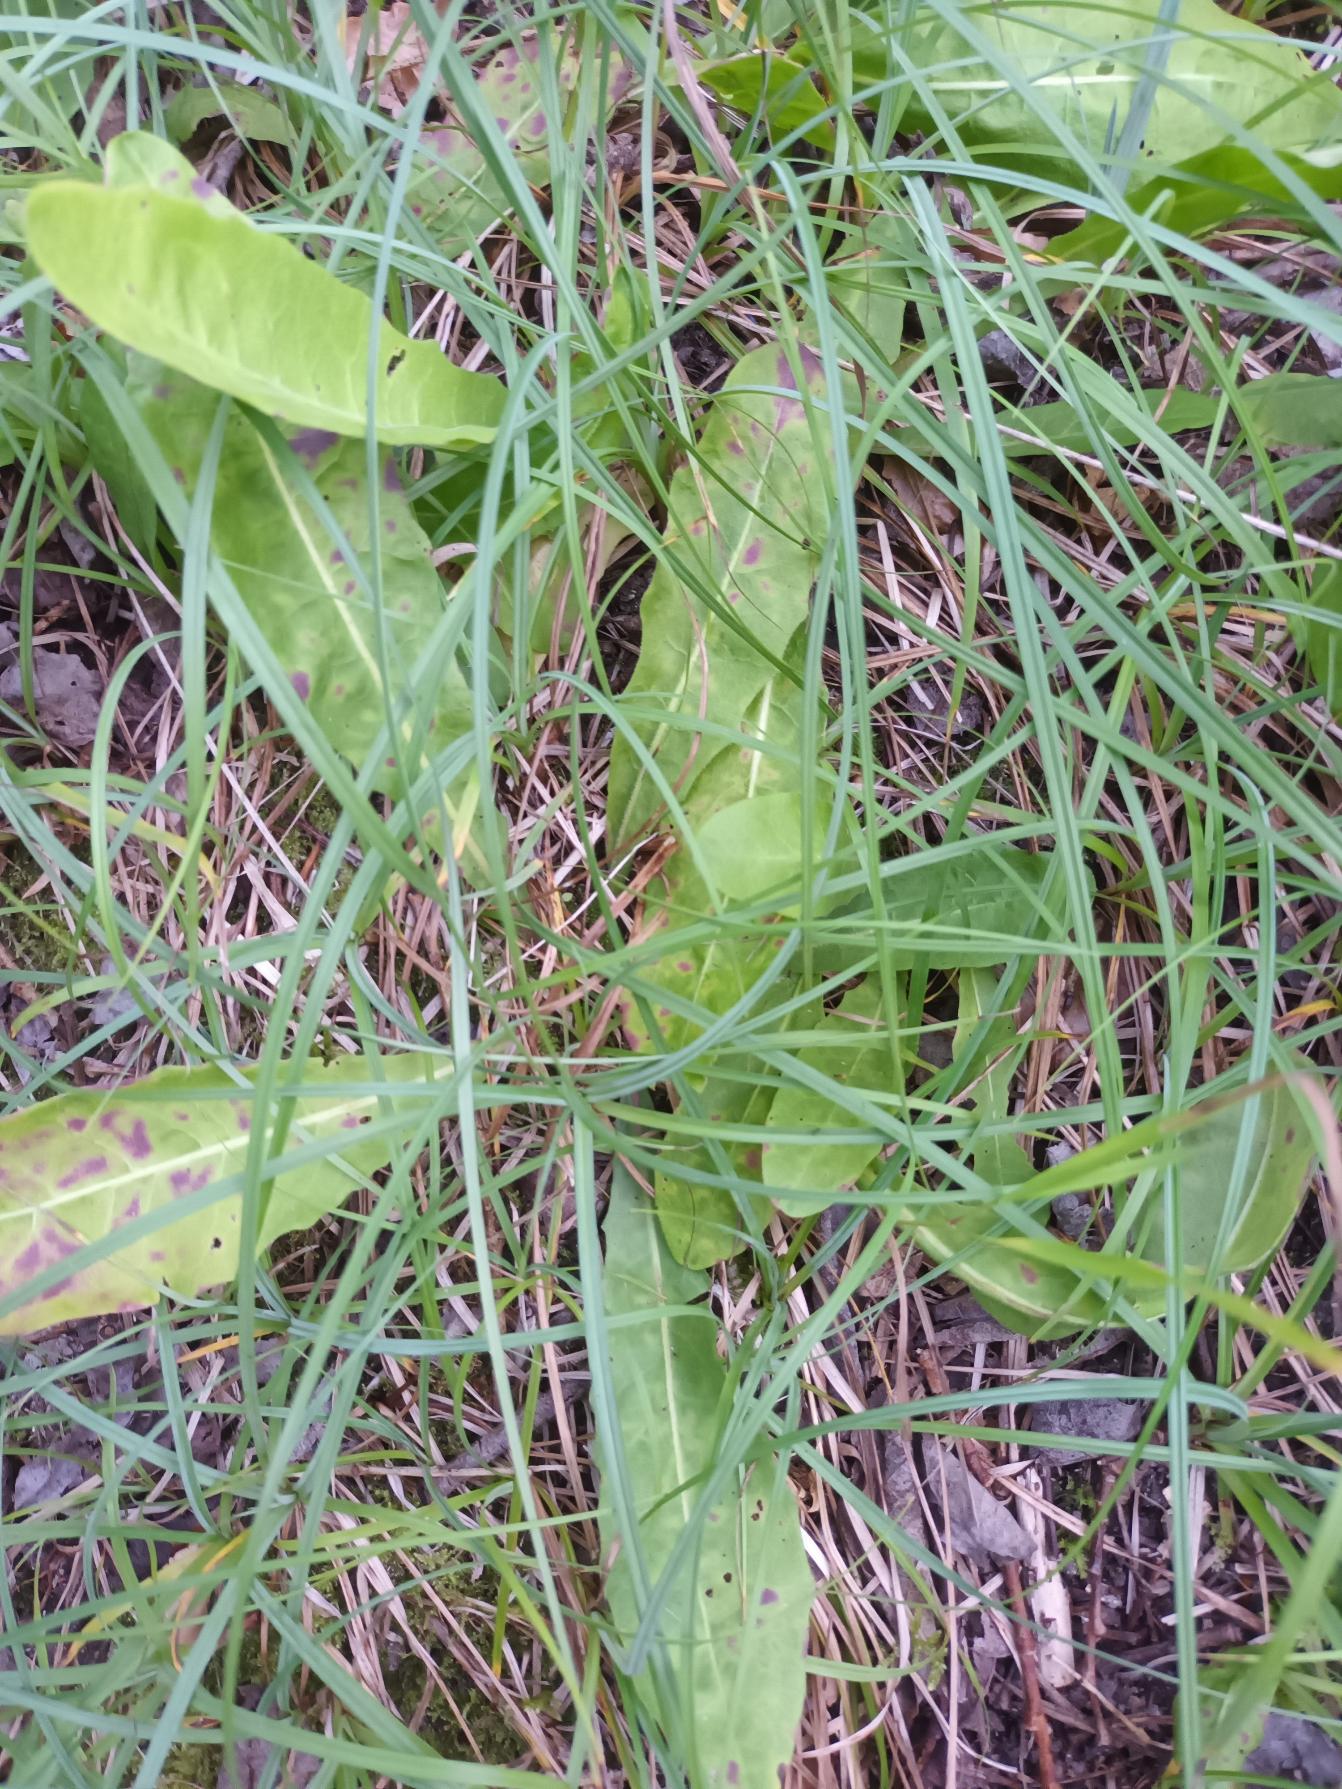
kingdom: Plantae
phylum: Tracheophyta
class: Magnoliopsida
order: Asterales
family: Asteraceae
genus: Crepis
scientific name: Crepis praemorsa
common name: Afbidt høgeskæg
